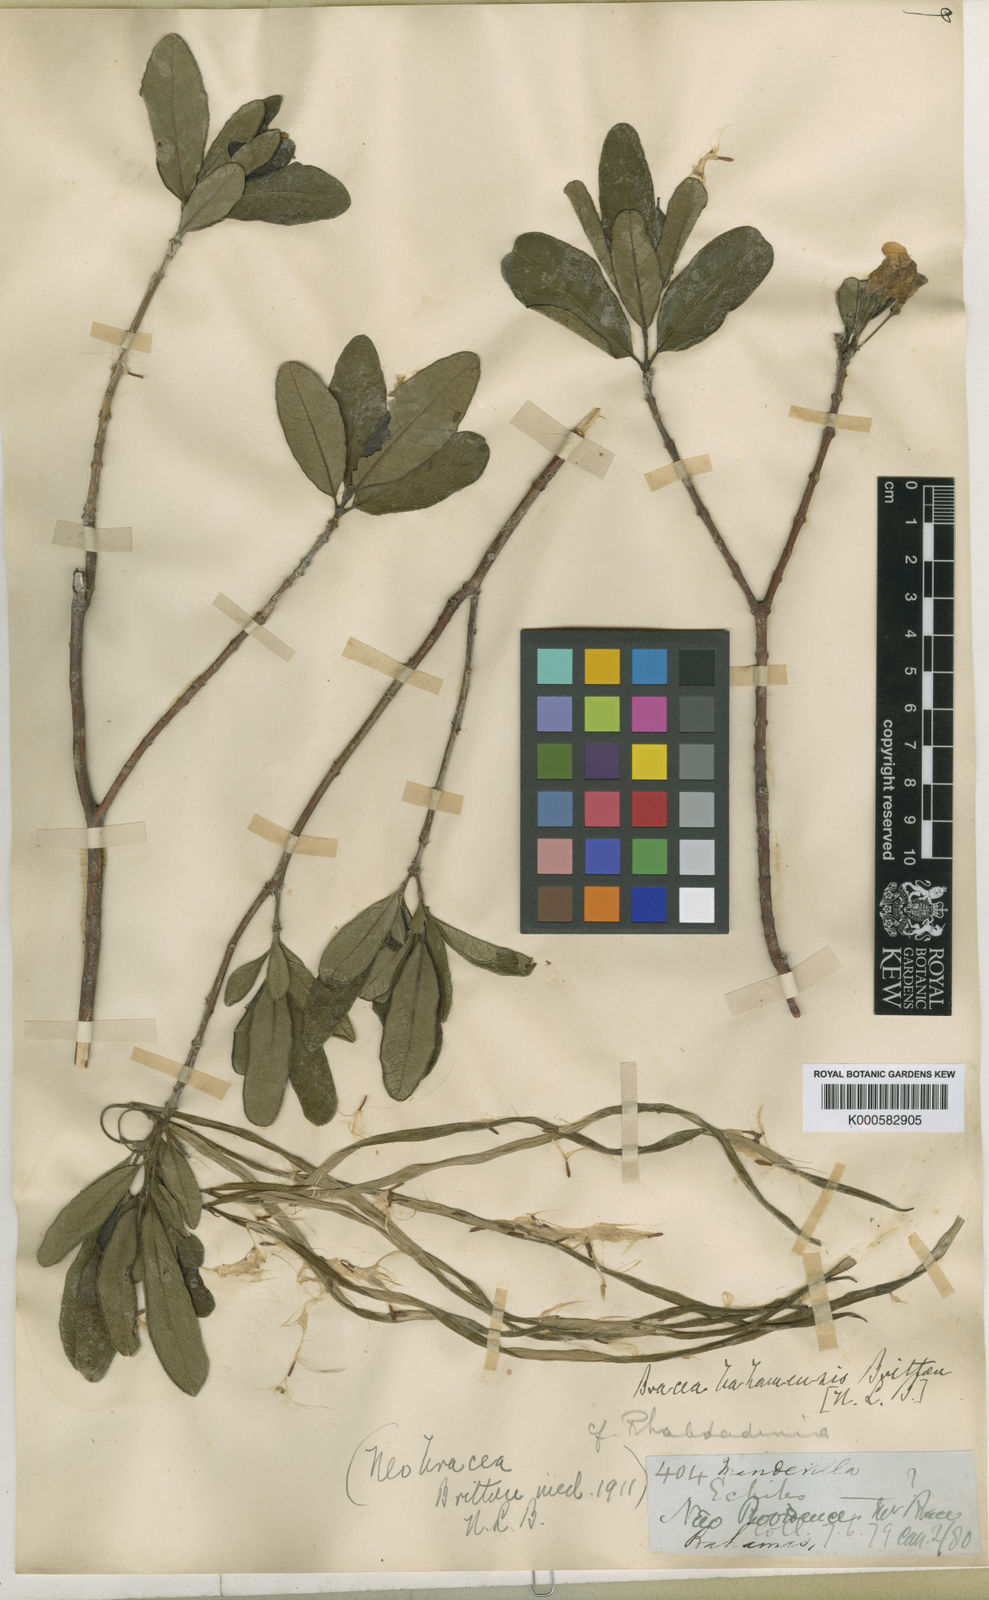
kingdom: Plantae
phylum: Tracheophyta
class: Magnoliopsida
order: Gentianales
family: Apocynaceae
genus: Neobracea
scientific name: Neobracea bahamensis
